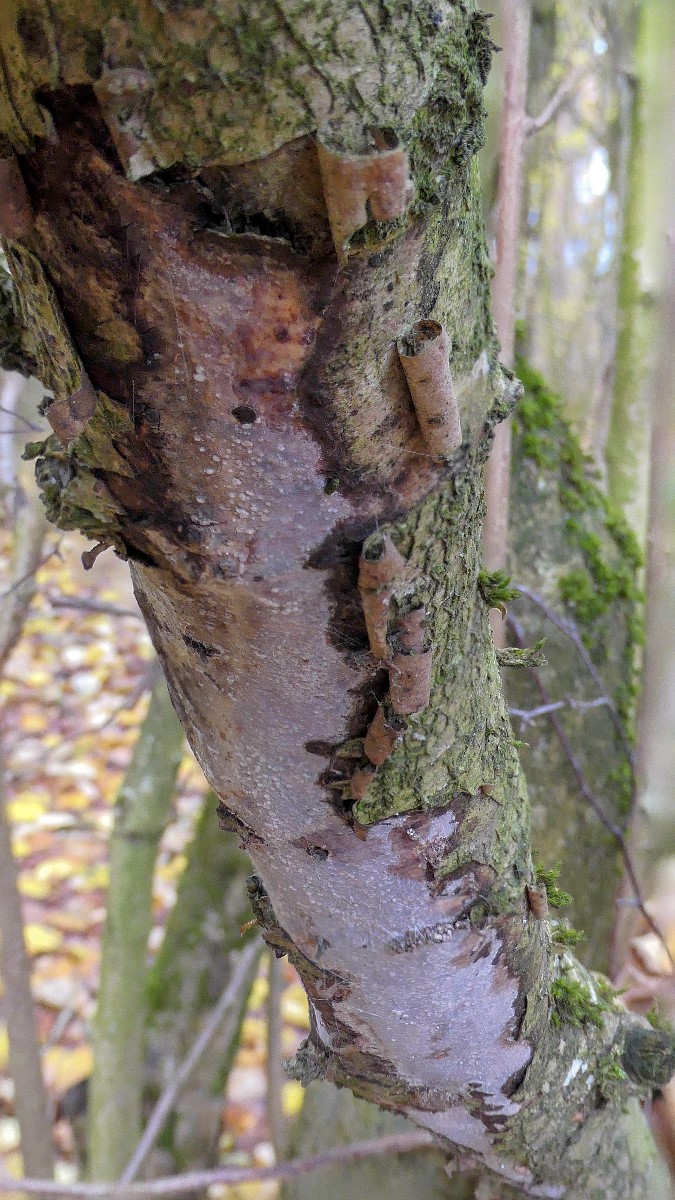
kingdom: Fungi
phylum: Basidiomycota
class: Agaricomycetes
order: Corticiales
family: Vuilleminiaceae
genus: Vuilleminia
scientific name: Vuilleminia coryli
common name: hassel-barksprænger
